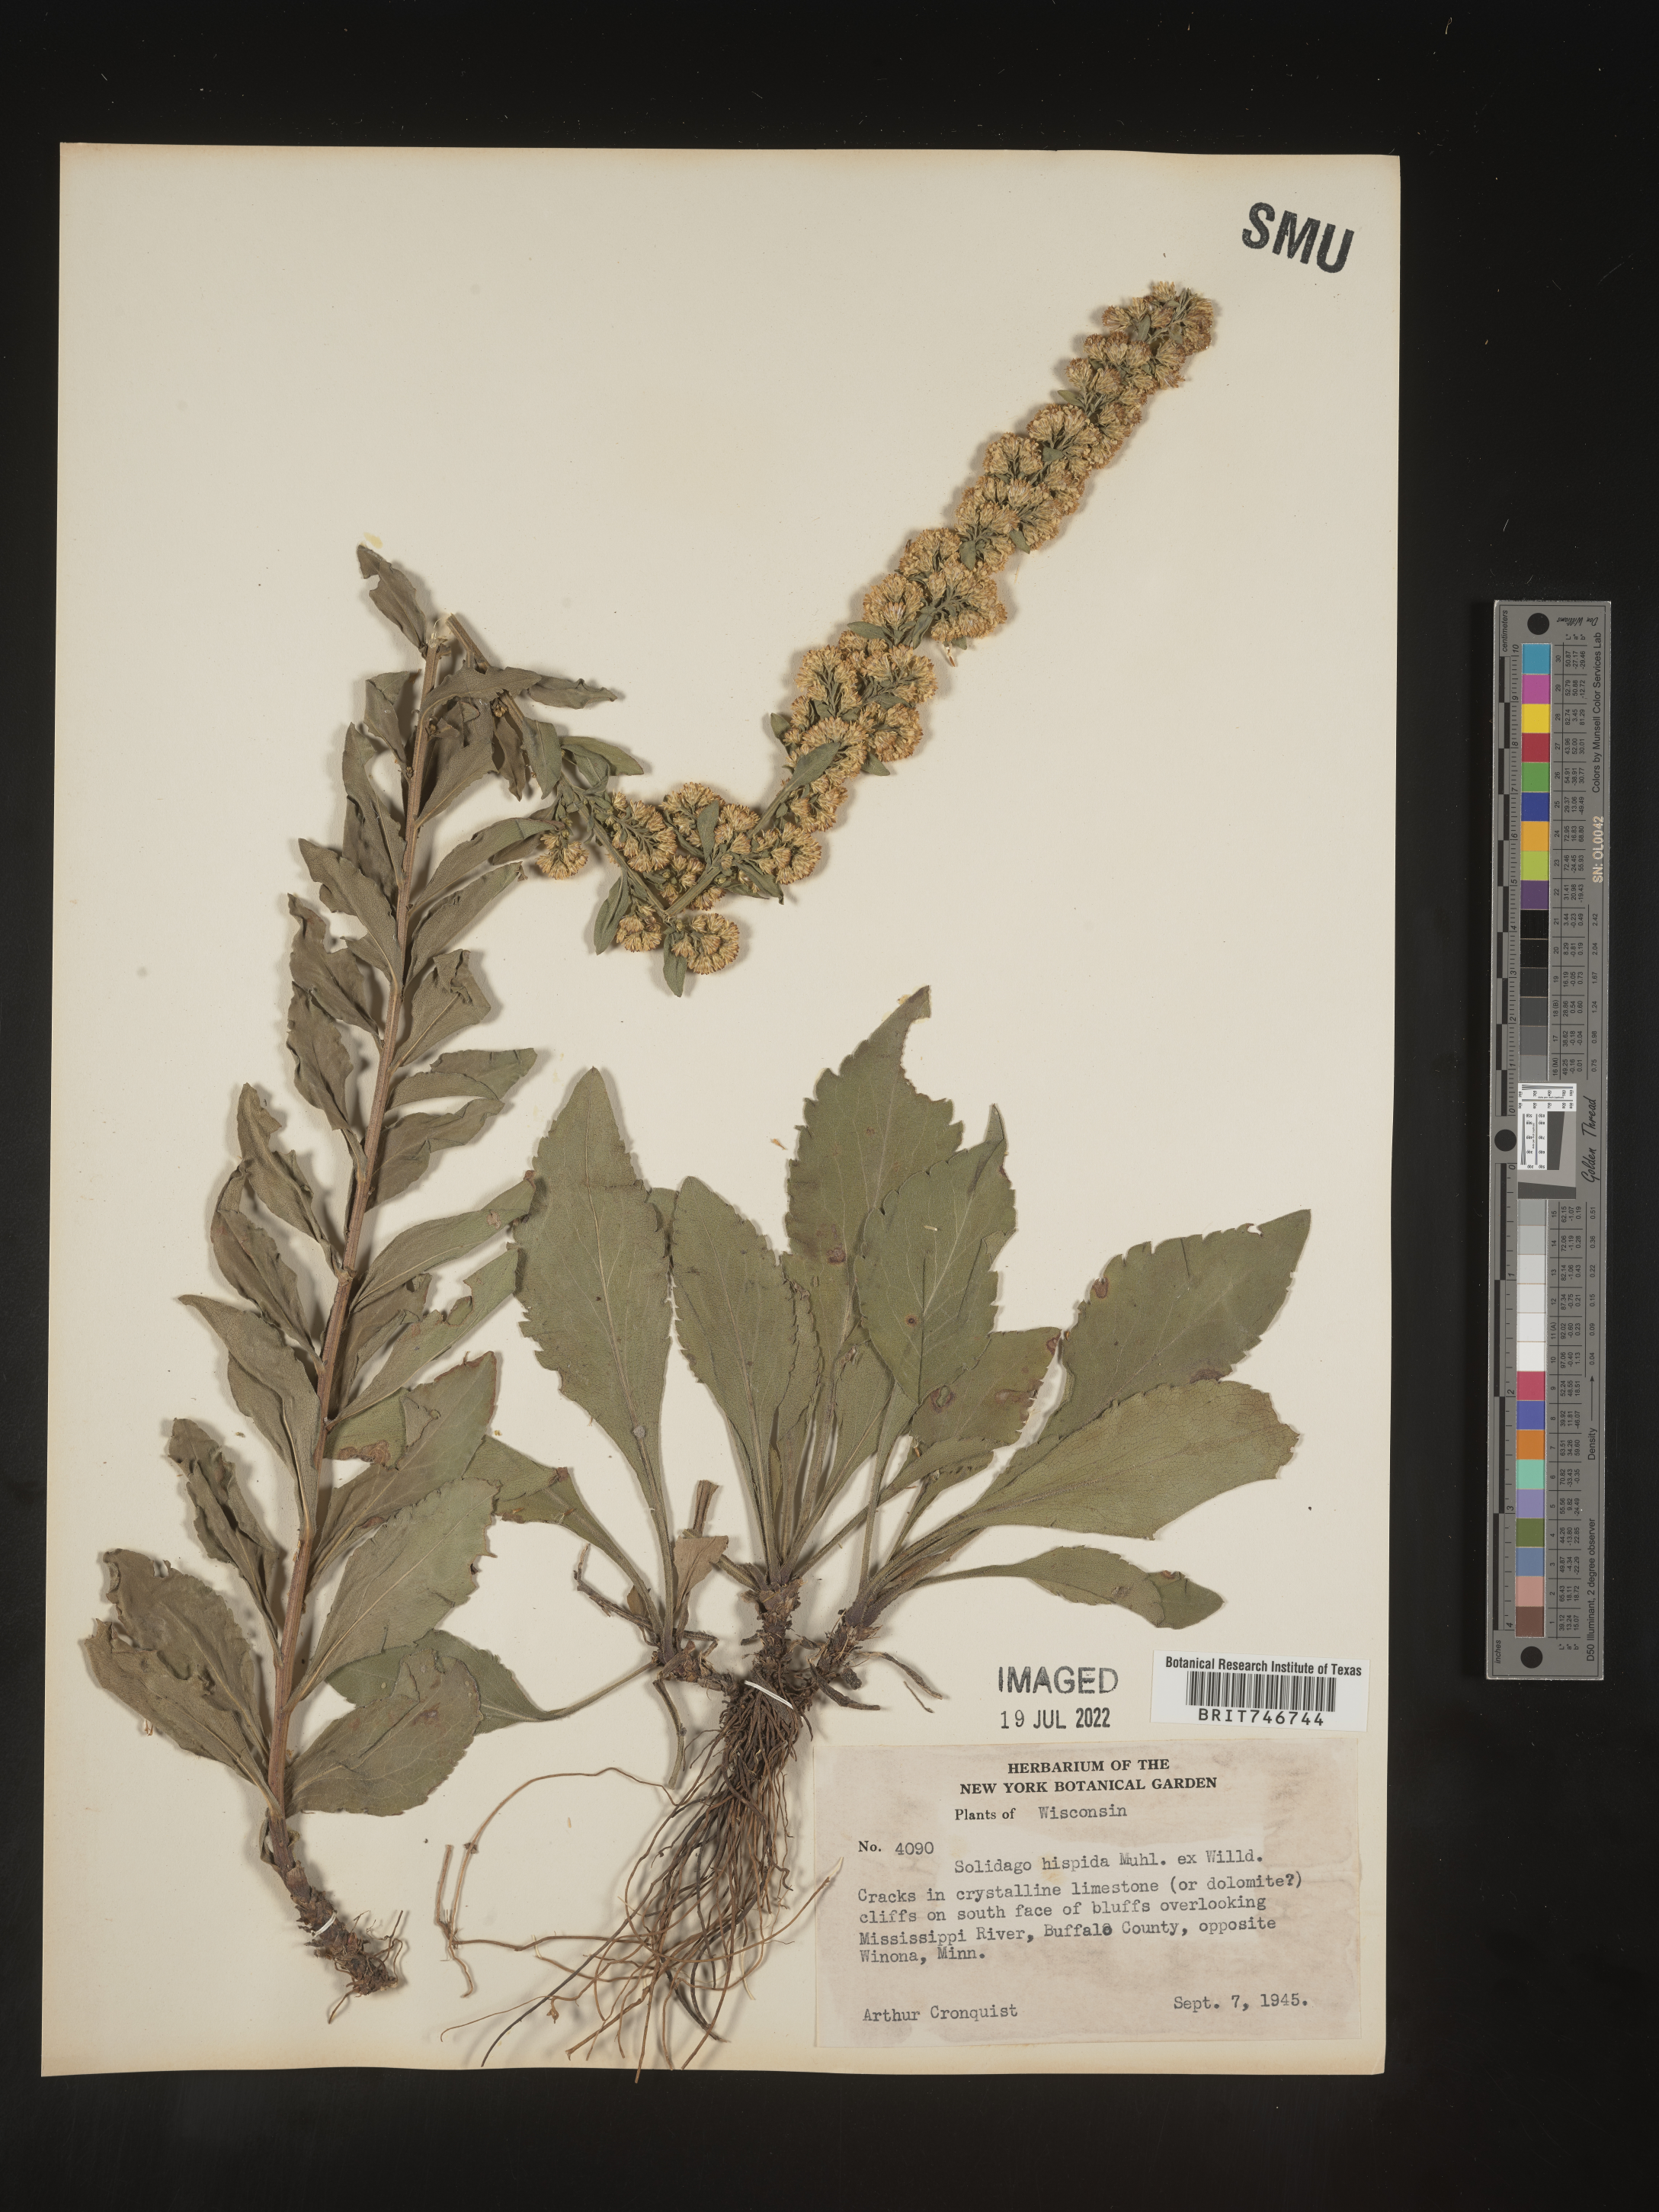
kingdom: Plantae
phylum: Tracheophyta
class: Magnoliopsida
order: Asterales
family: Asteraceae
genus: Solidago
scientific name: Solidago hispida
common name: Hairy goldenrod
